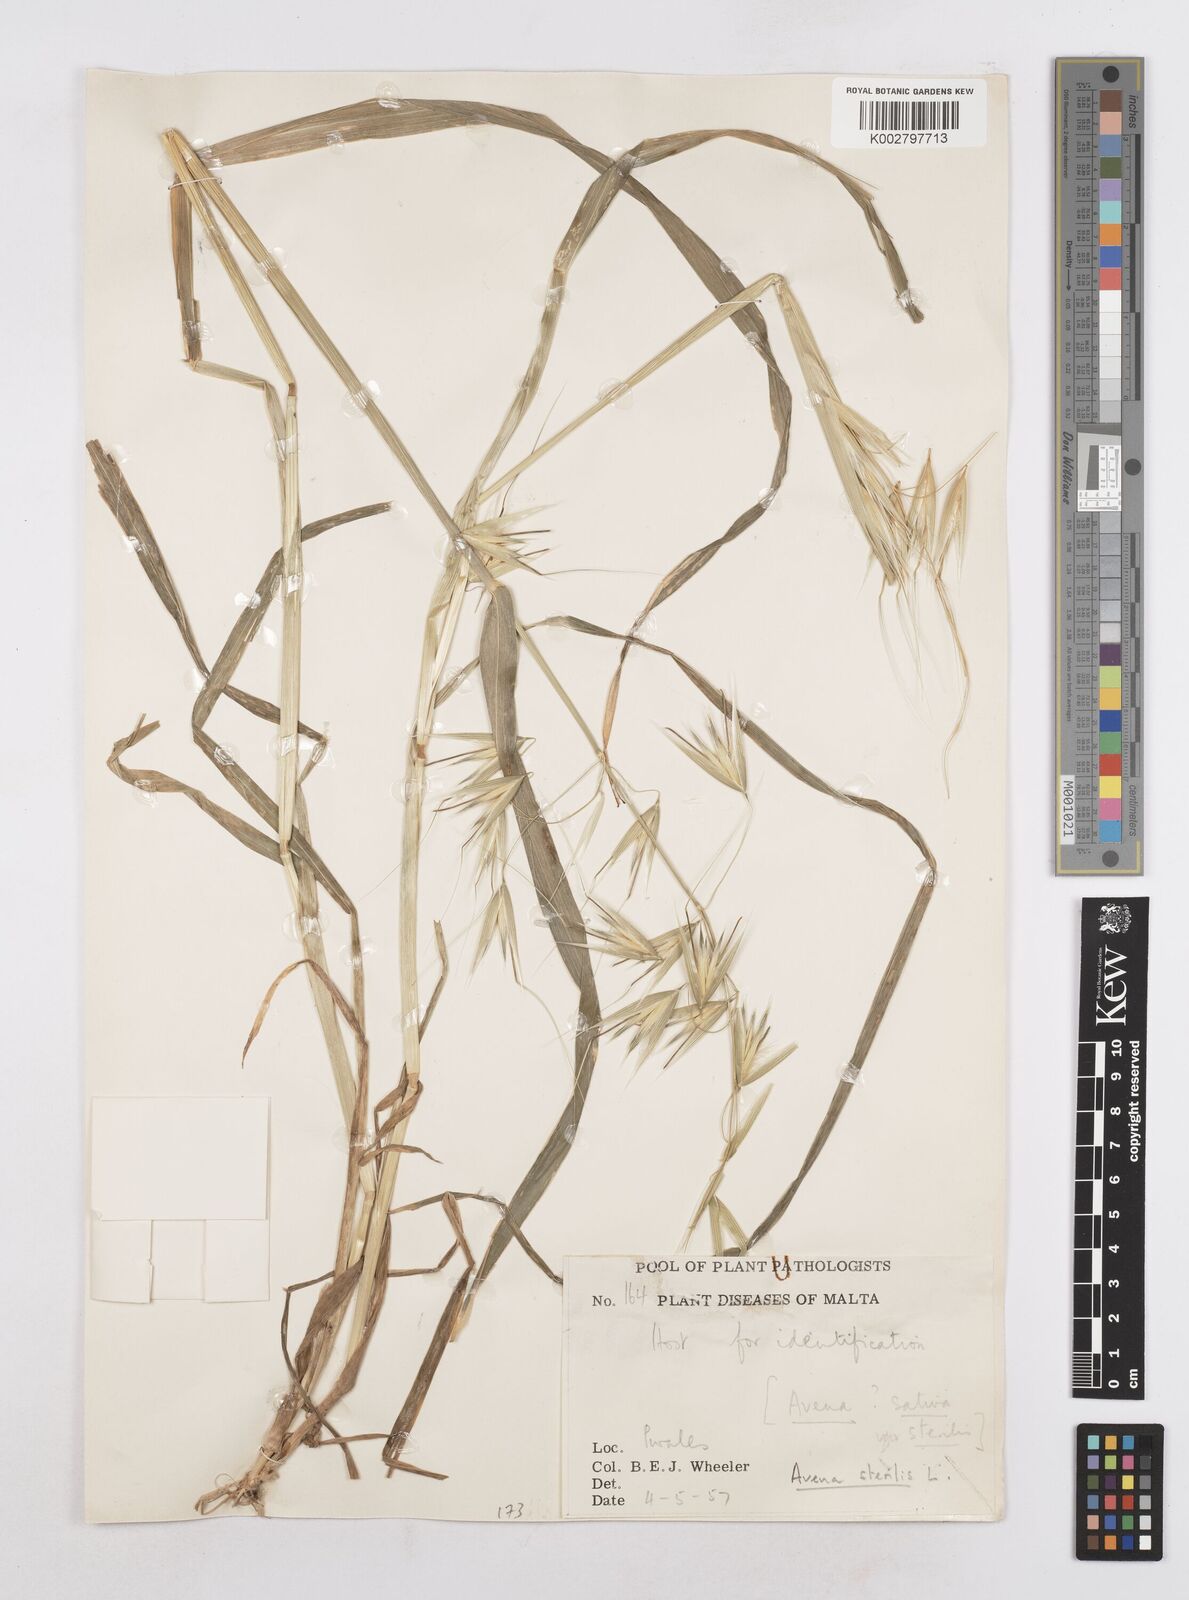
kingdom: Plantae
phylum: Tracheophyta
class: Liliopsida
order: Poales
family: Poaceae
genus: Avena
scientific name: Avena sterilis
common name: Animated oat
